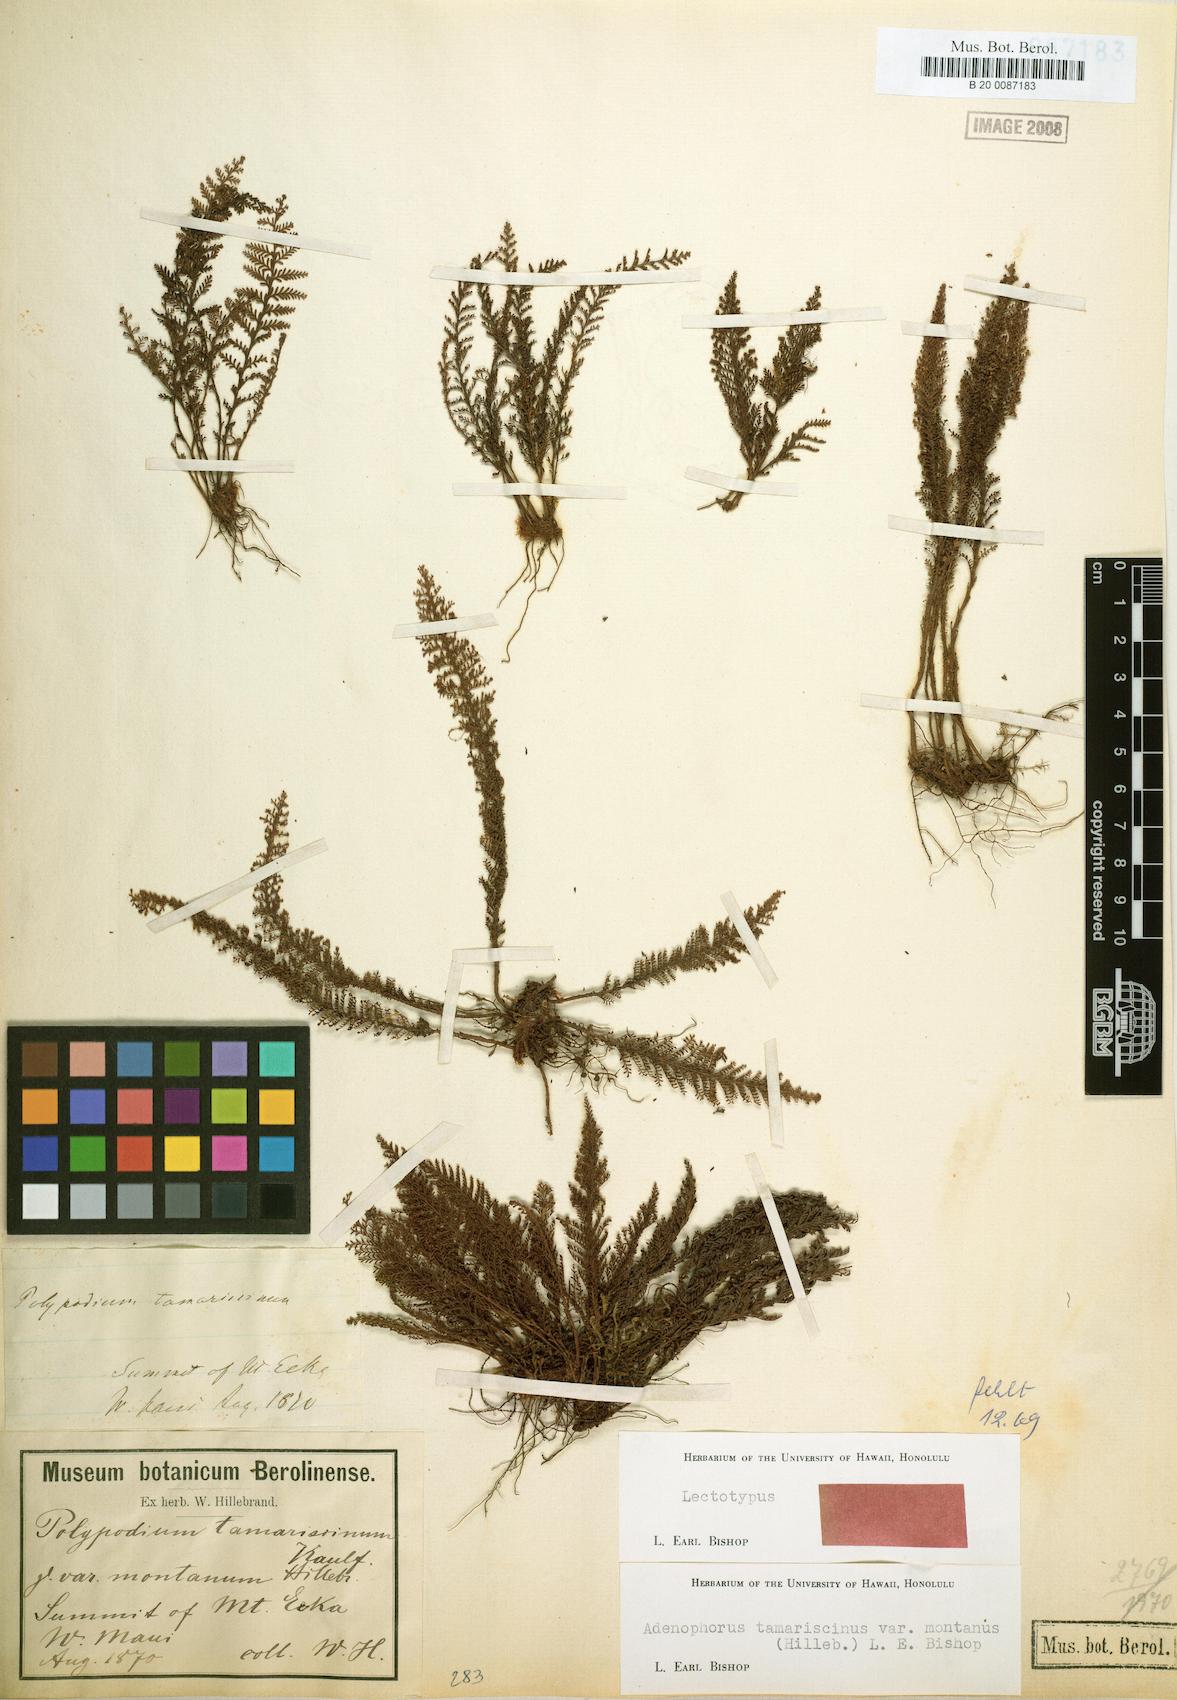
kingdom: Plantae
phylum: Tracheophyta
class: Polypodiopsida
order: Polypodiales
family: Polypodiaceae
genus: Adenophorus
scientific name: Adenophorus montanus
